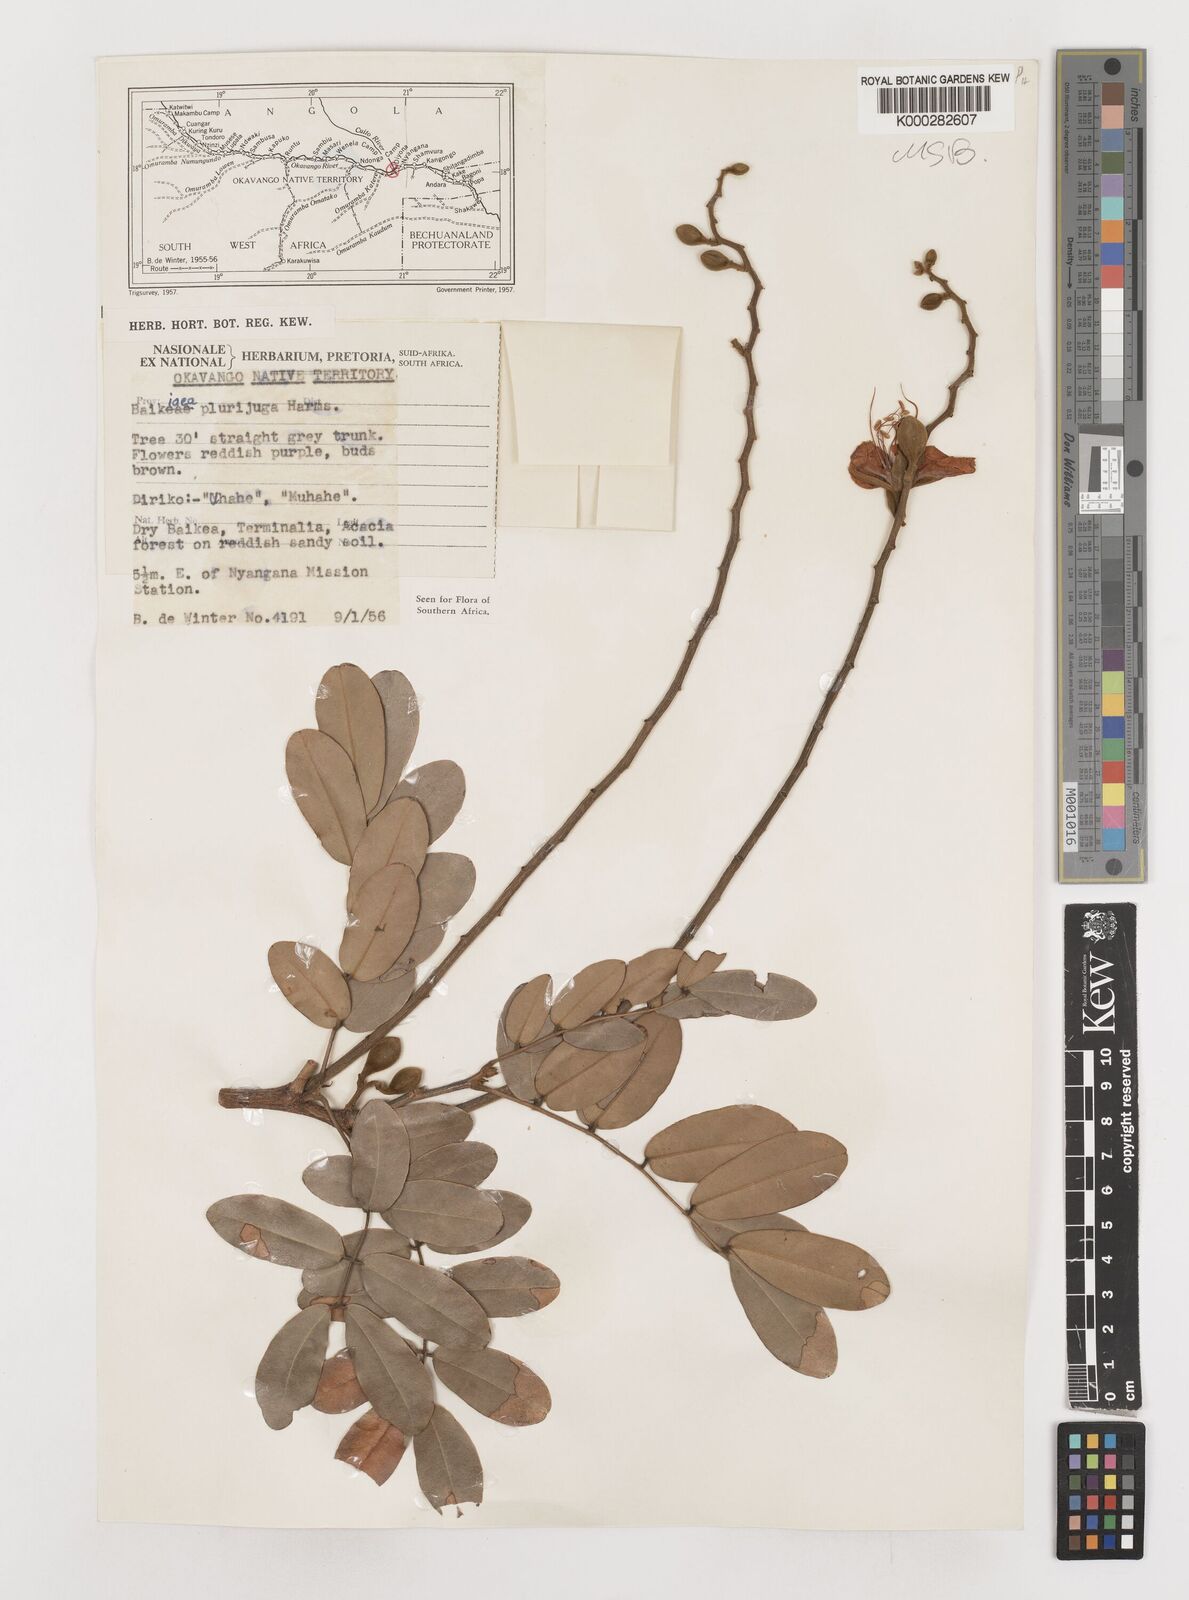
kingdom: Plantae
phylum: Tracheophyta
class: Magnoliopsida
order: Fabales
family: Fabaceae
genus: Baikiaea
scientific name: Baikiaea plurijuga
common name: Rhodesian-teak
